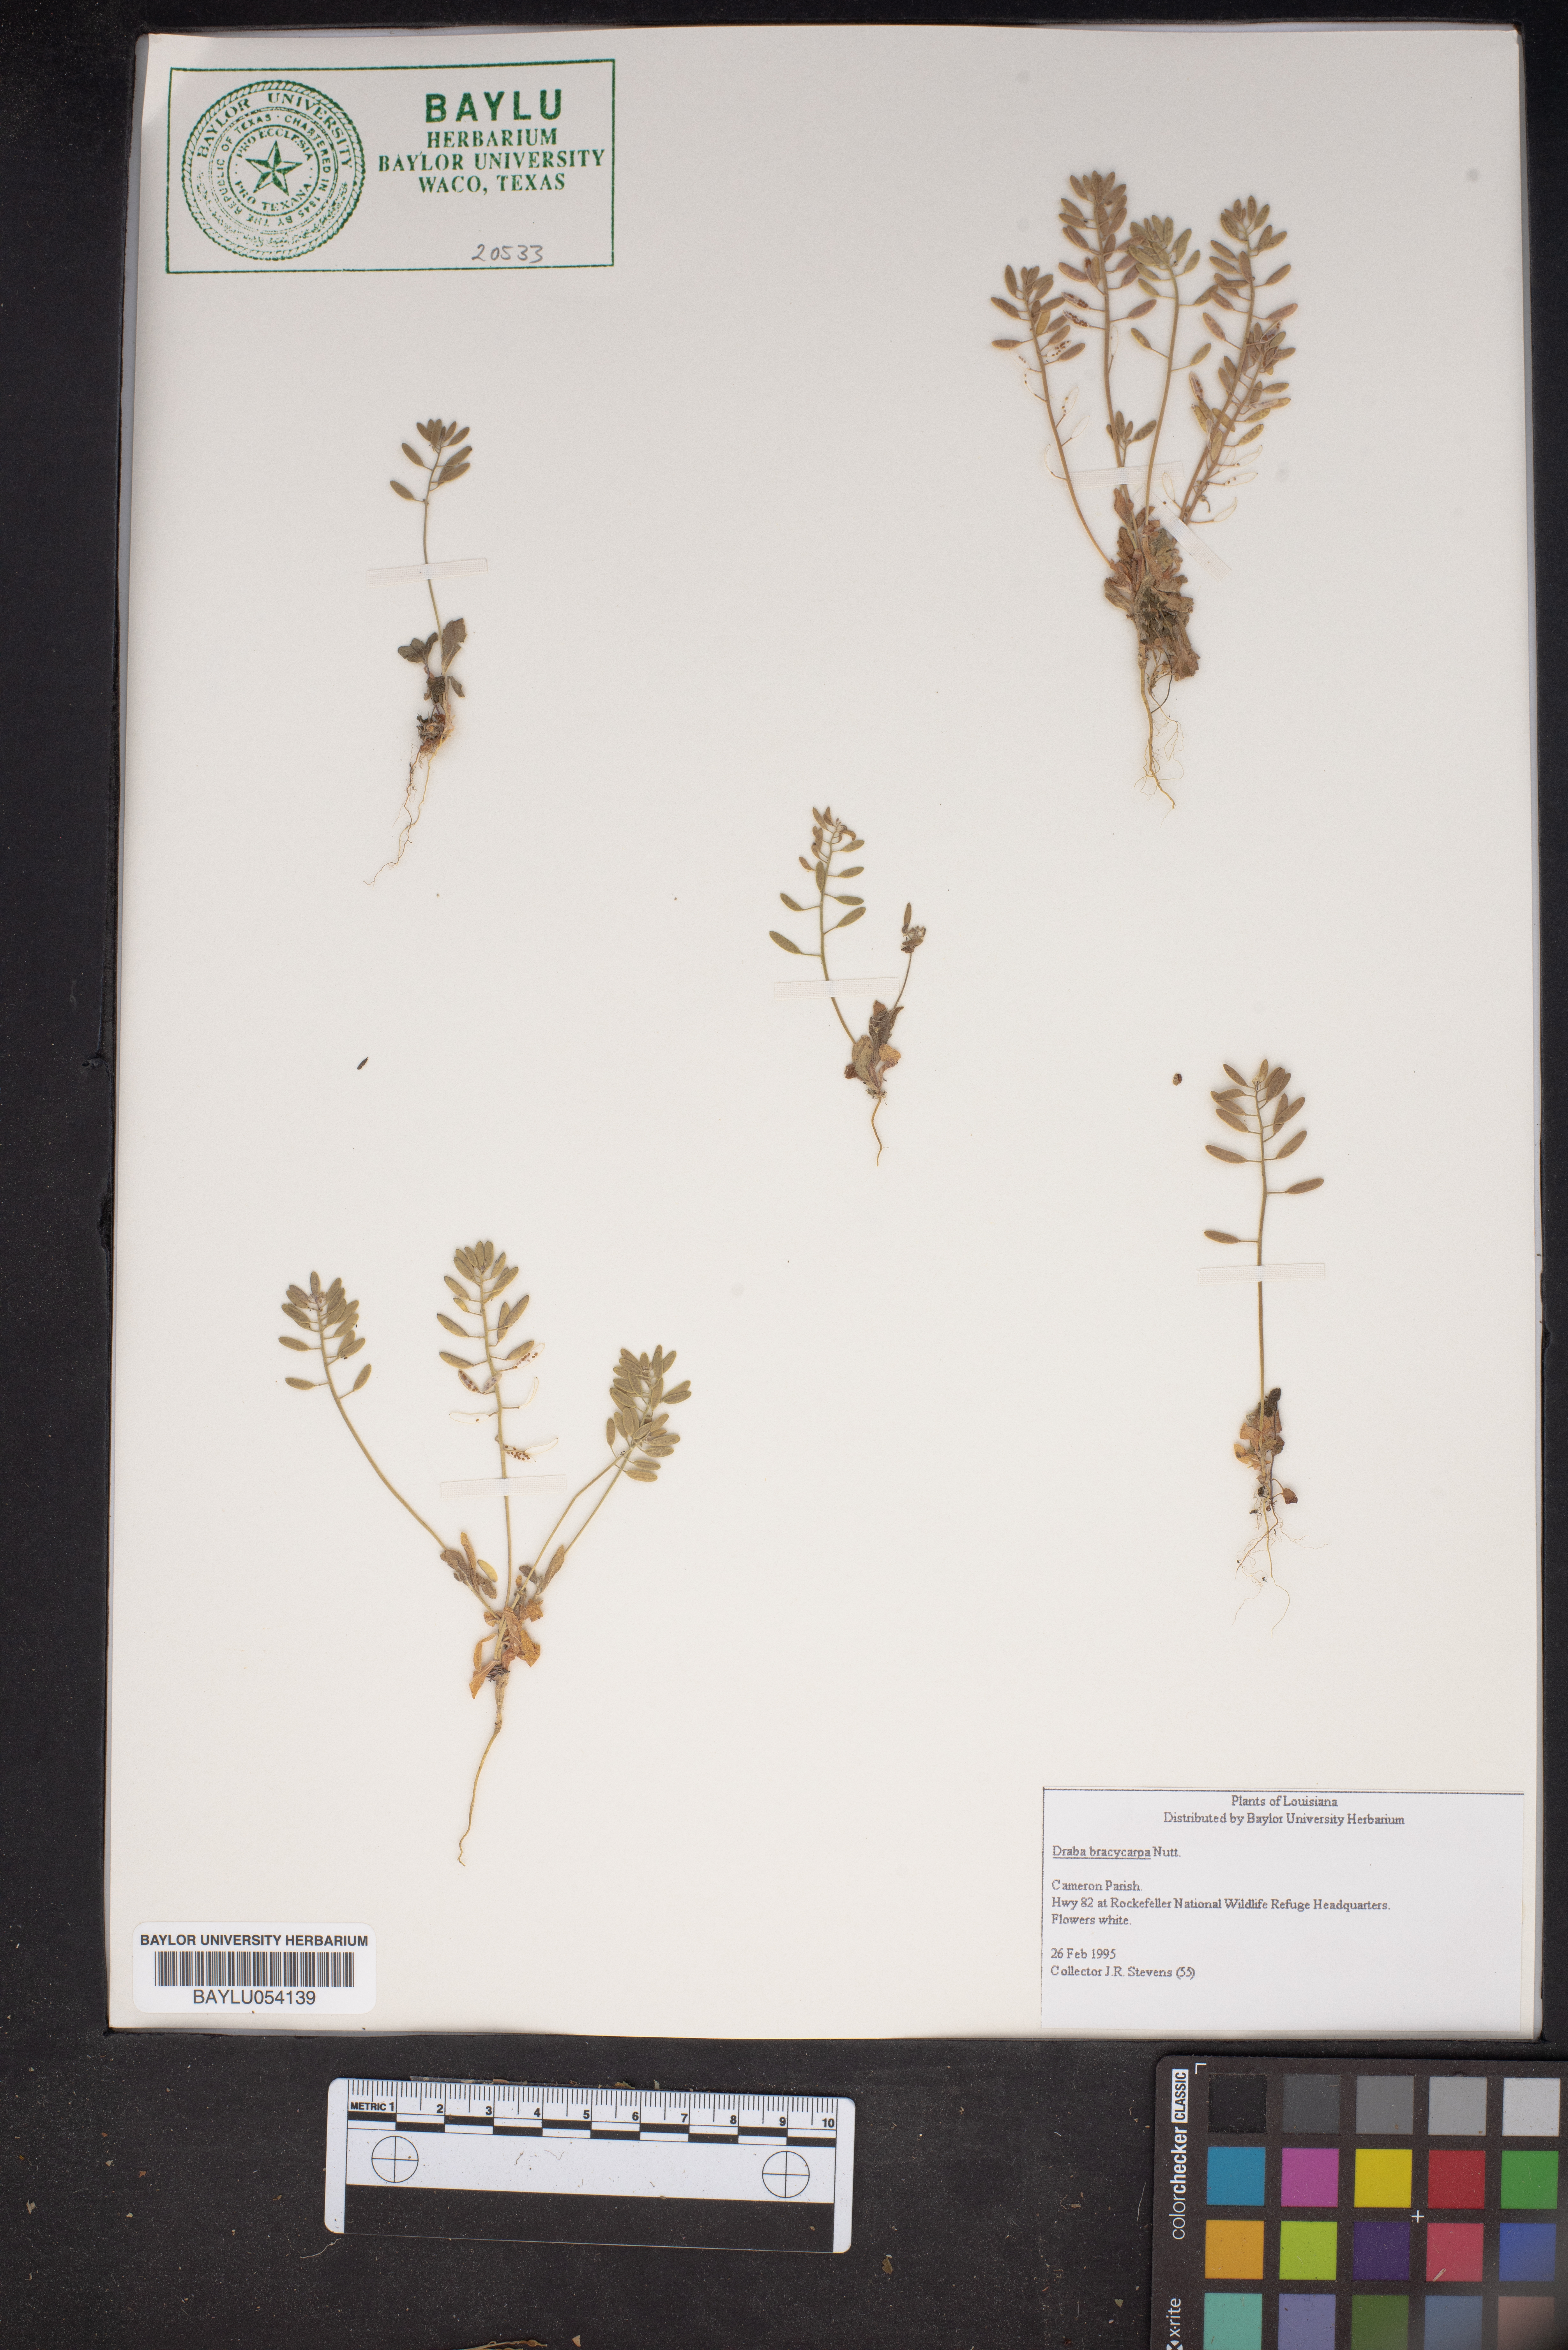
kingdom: Plantae
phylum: Tracheophyta
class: Magnoliopsida
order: Brassicales
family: Brassicaceae
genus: Abdra
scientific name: Abdra brachycarpa
